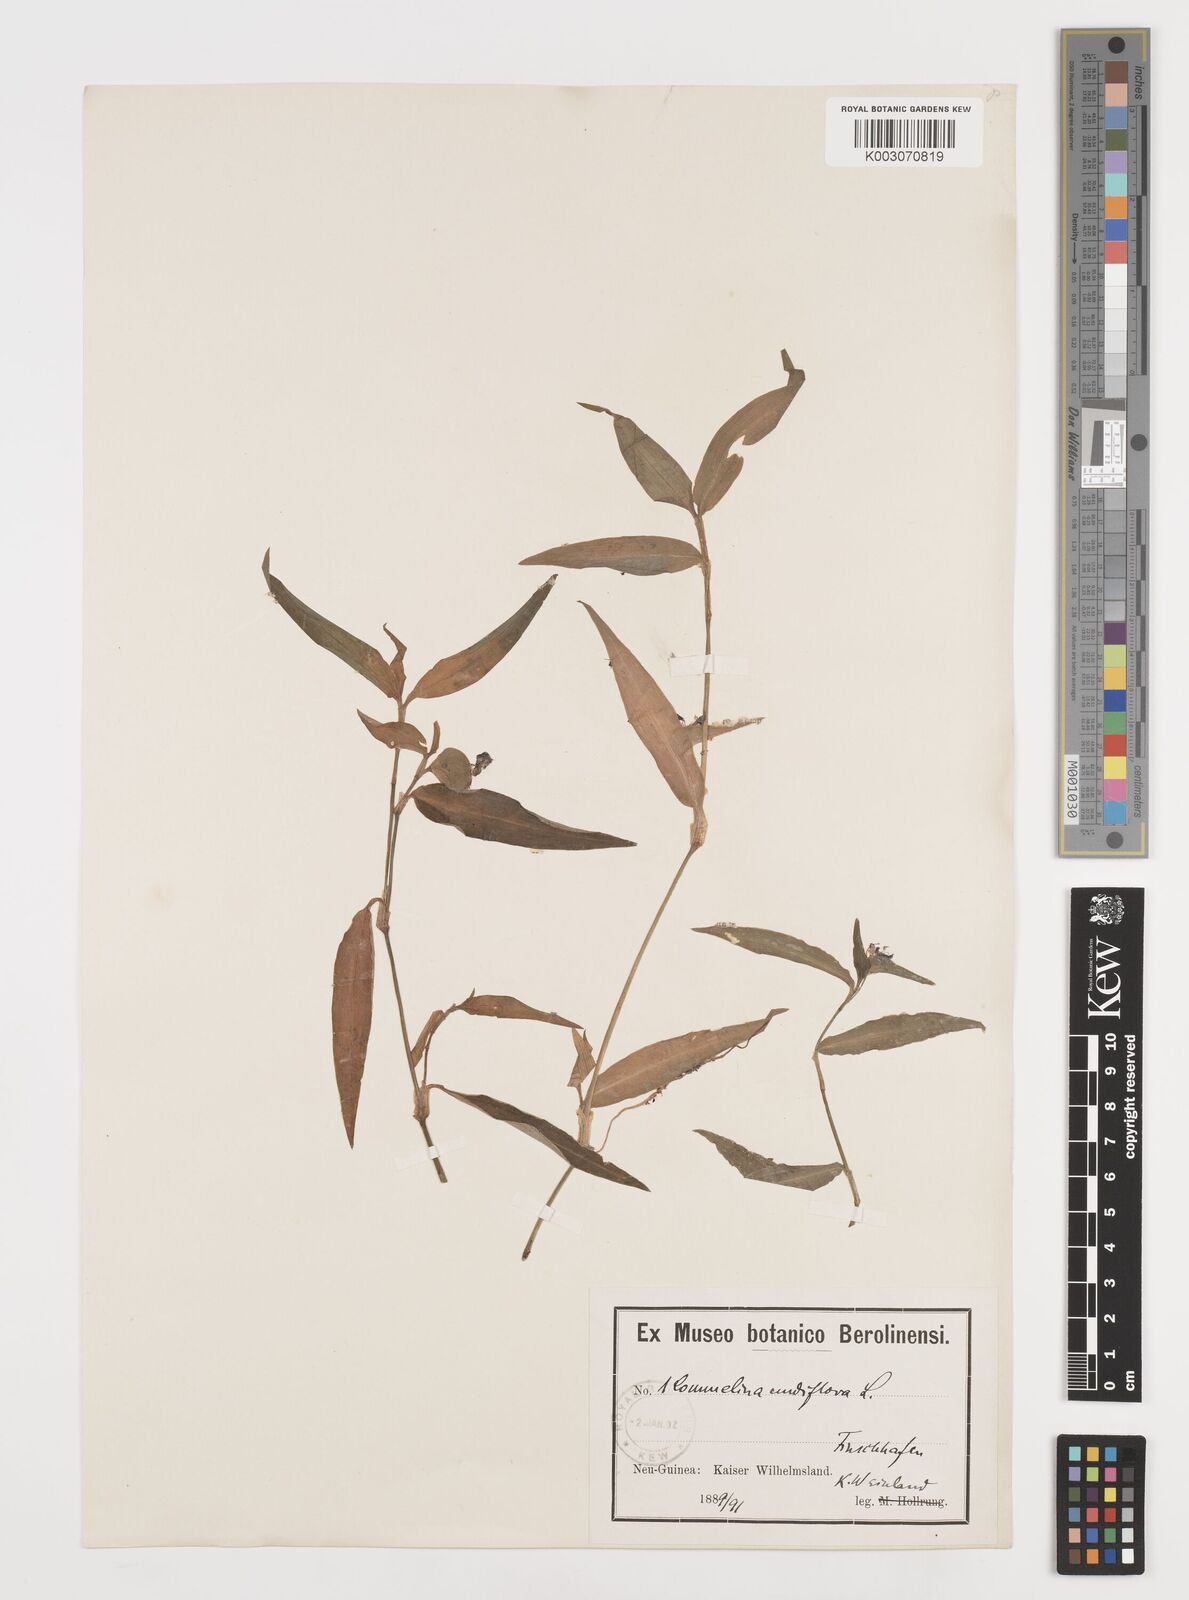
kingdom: Plantae
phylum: Tracheophyta
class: Liliopsida
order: Commelinales
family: Commelinaceae
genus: Murdannia
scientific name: Murdannia nudiflora
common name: Nakedstem dewflower
